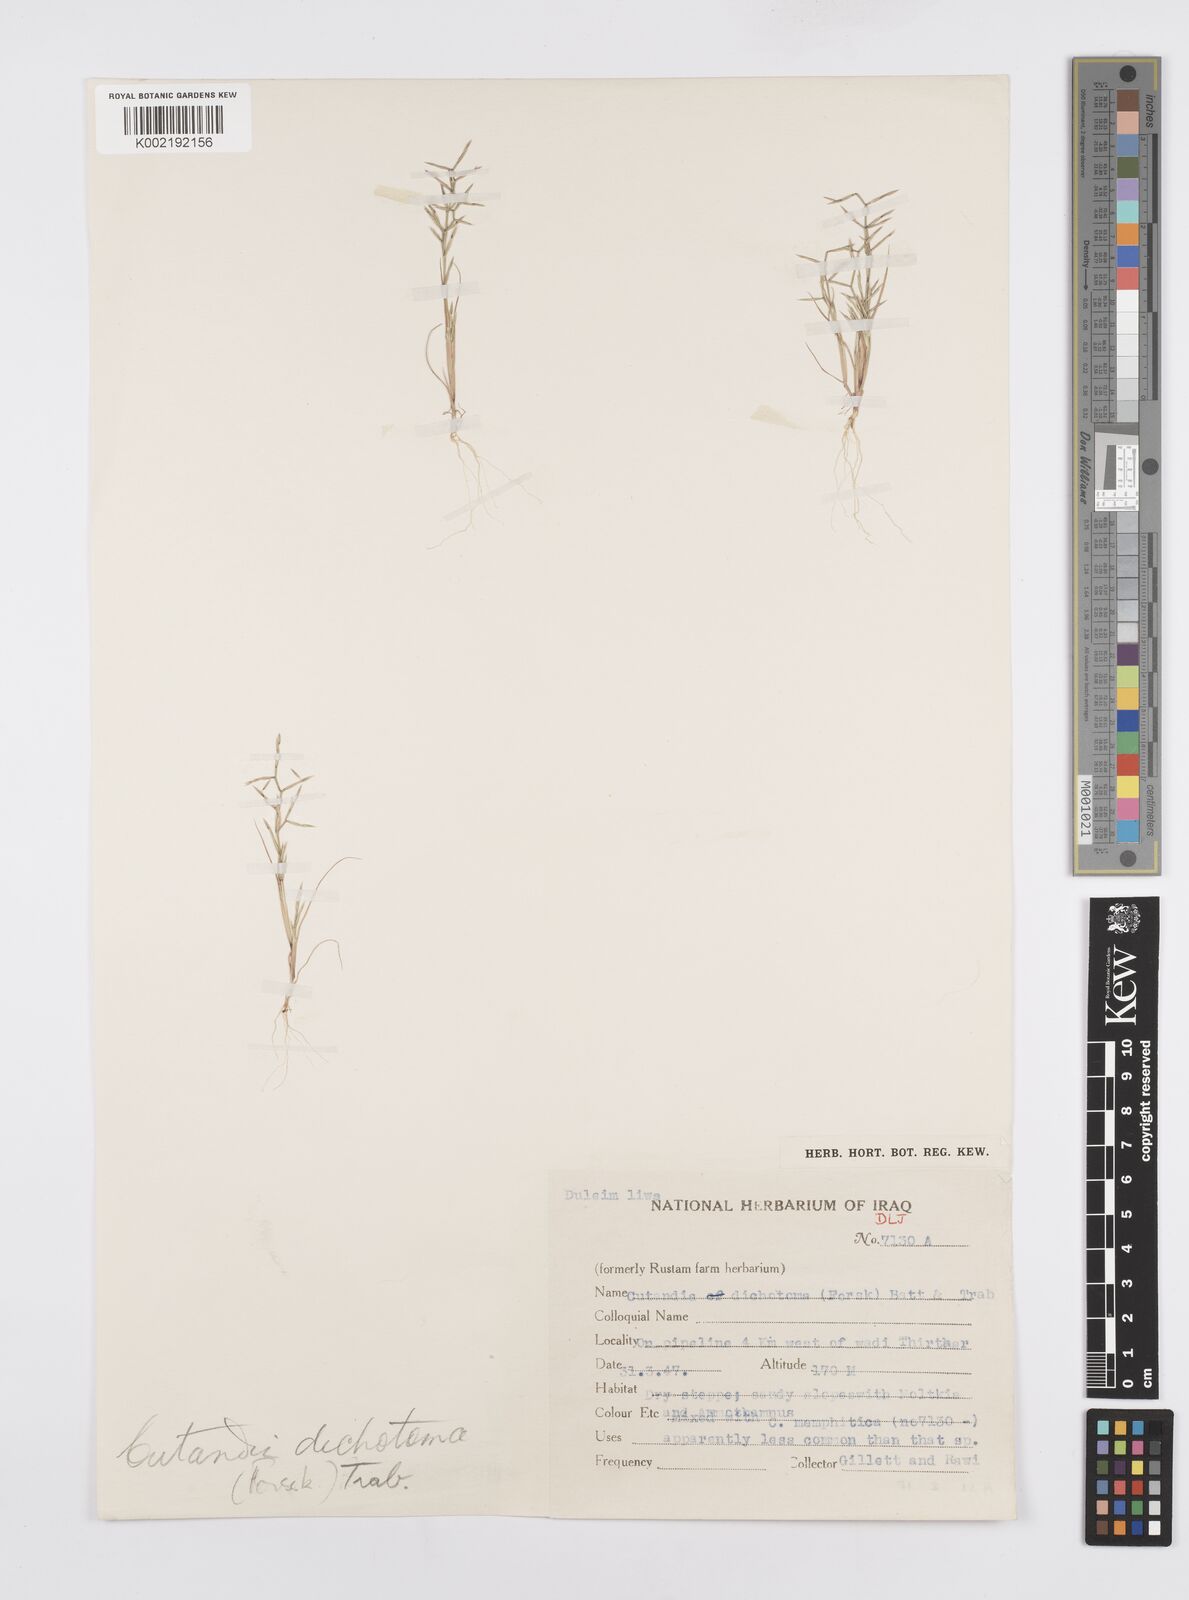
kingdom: Plantae
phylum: Tracheophyta
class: Liliopsida
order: Poales
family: Poaceae
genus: Cutandia
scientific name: Cutandia dichotoma
